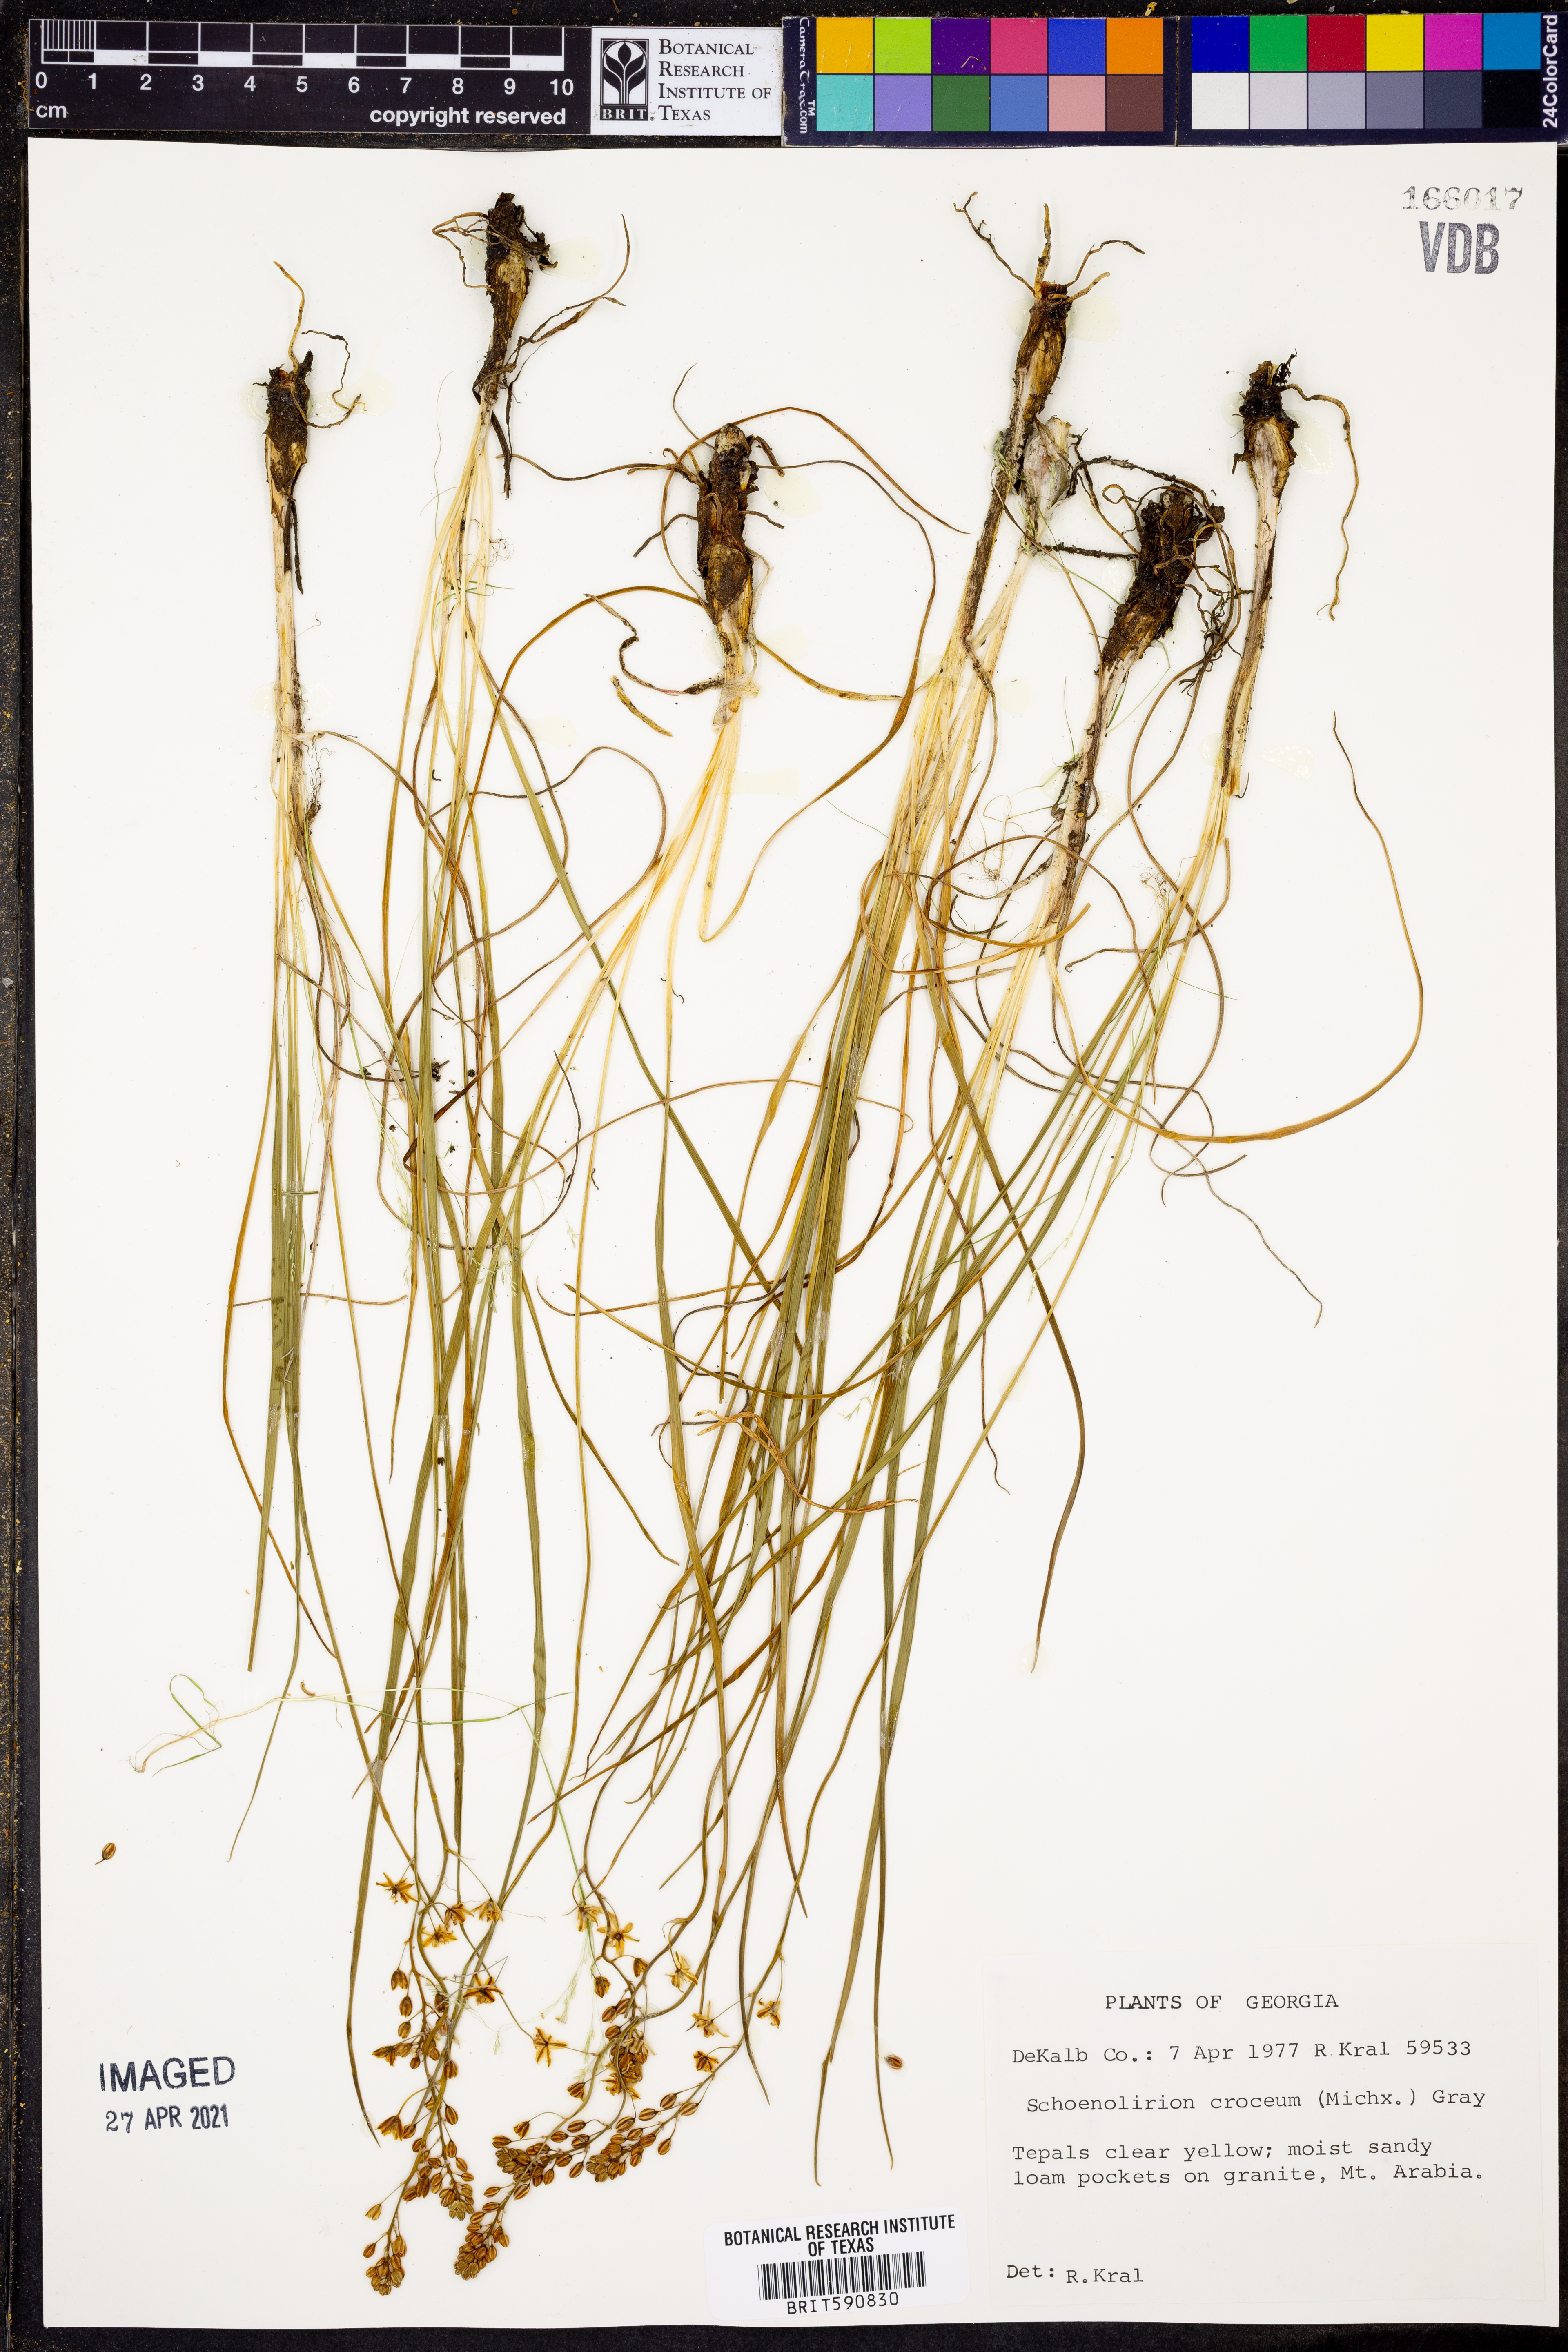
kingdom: Plantae
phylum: Tracheophyta
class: Liliopsida
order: Asparagales
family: Asparagaceae
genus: Schoenolirion
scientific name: Schoenolirion croceum
